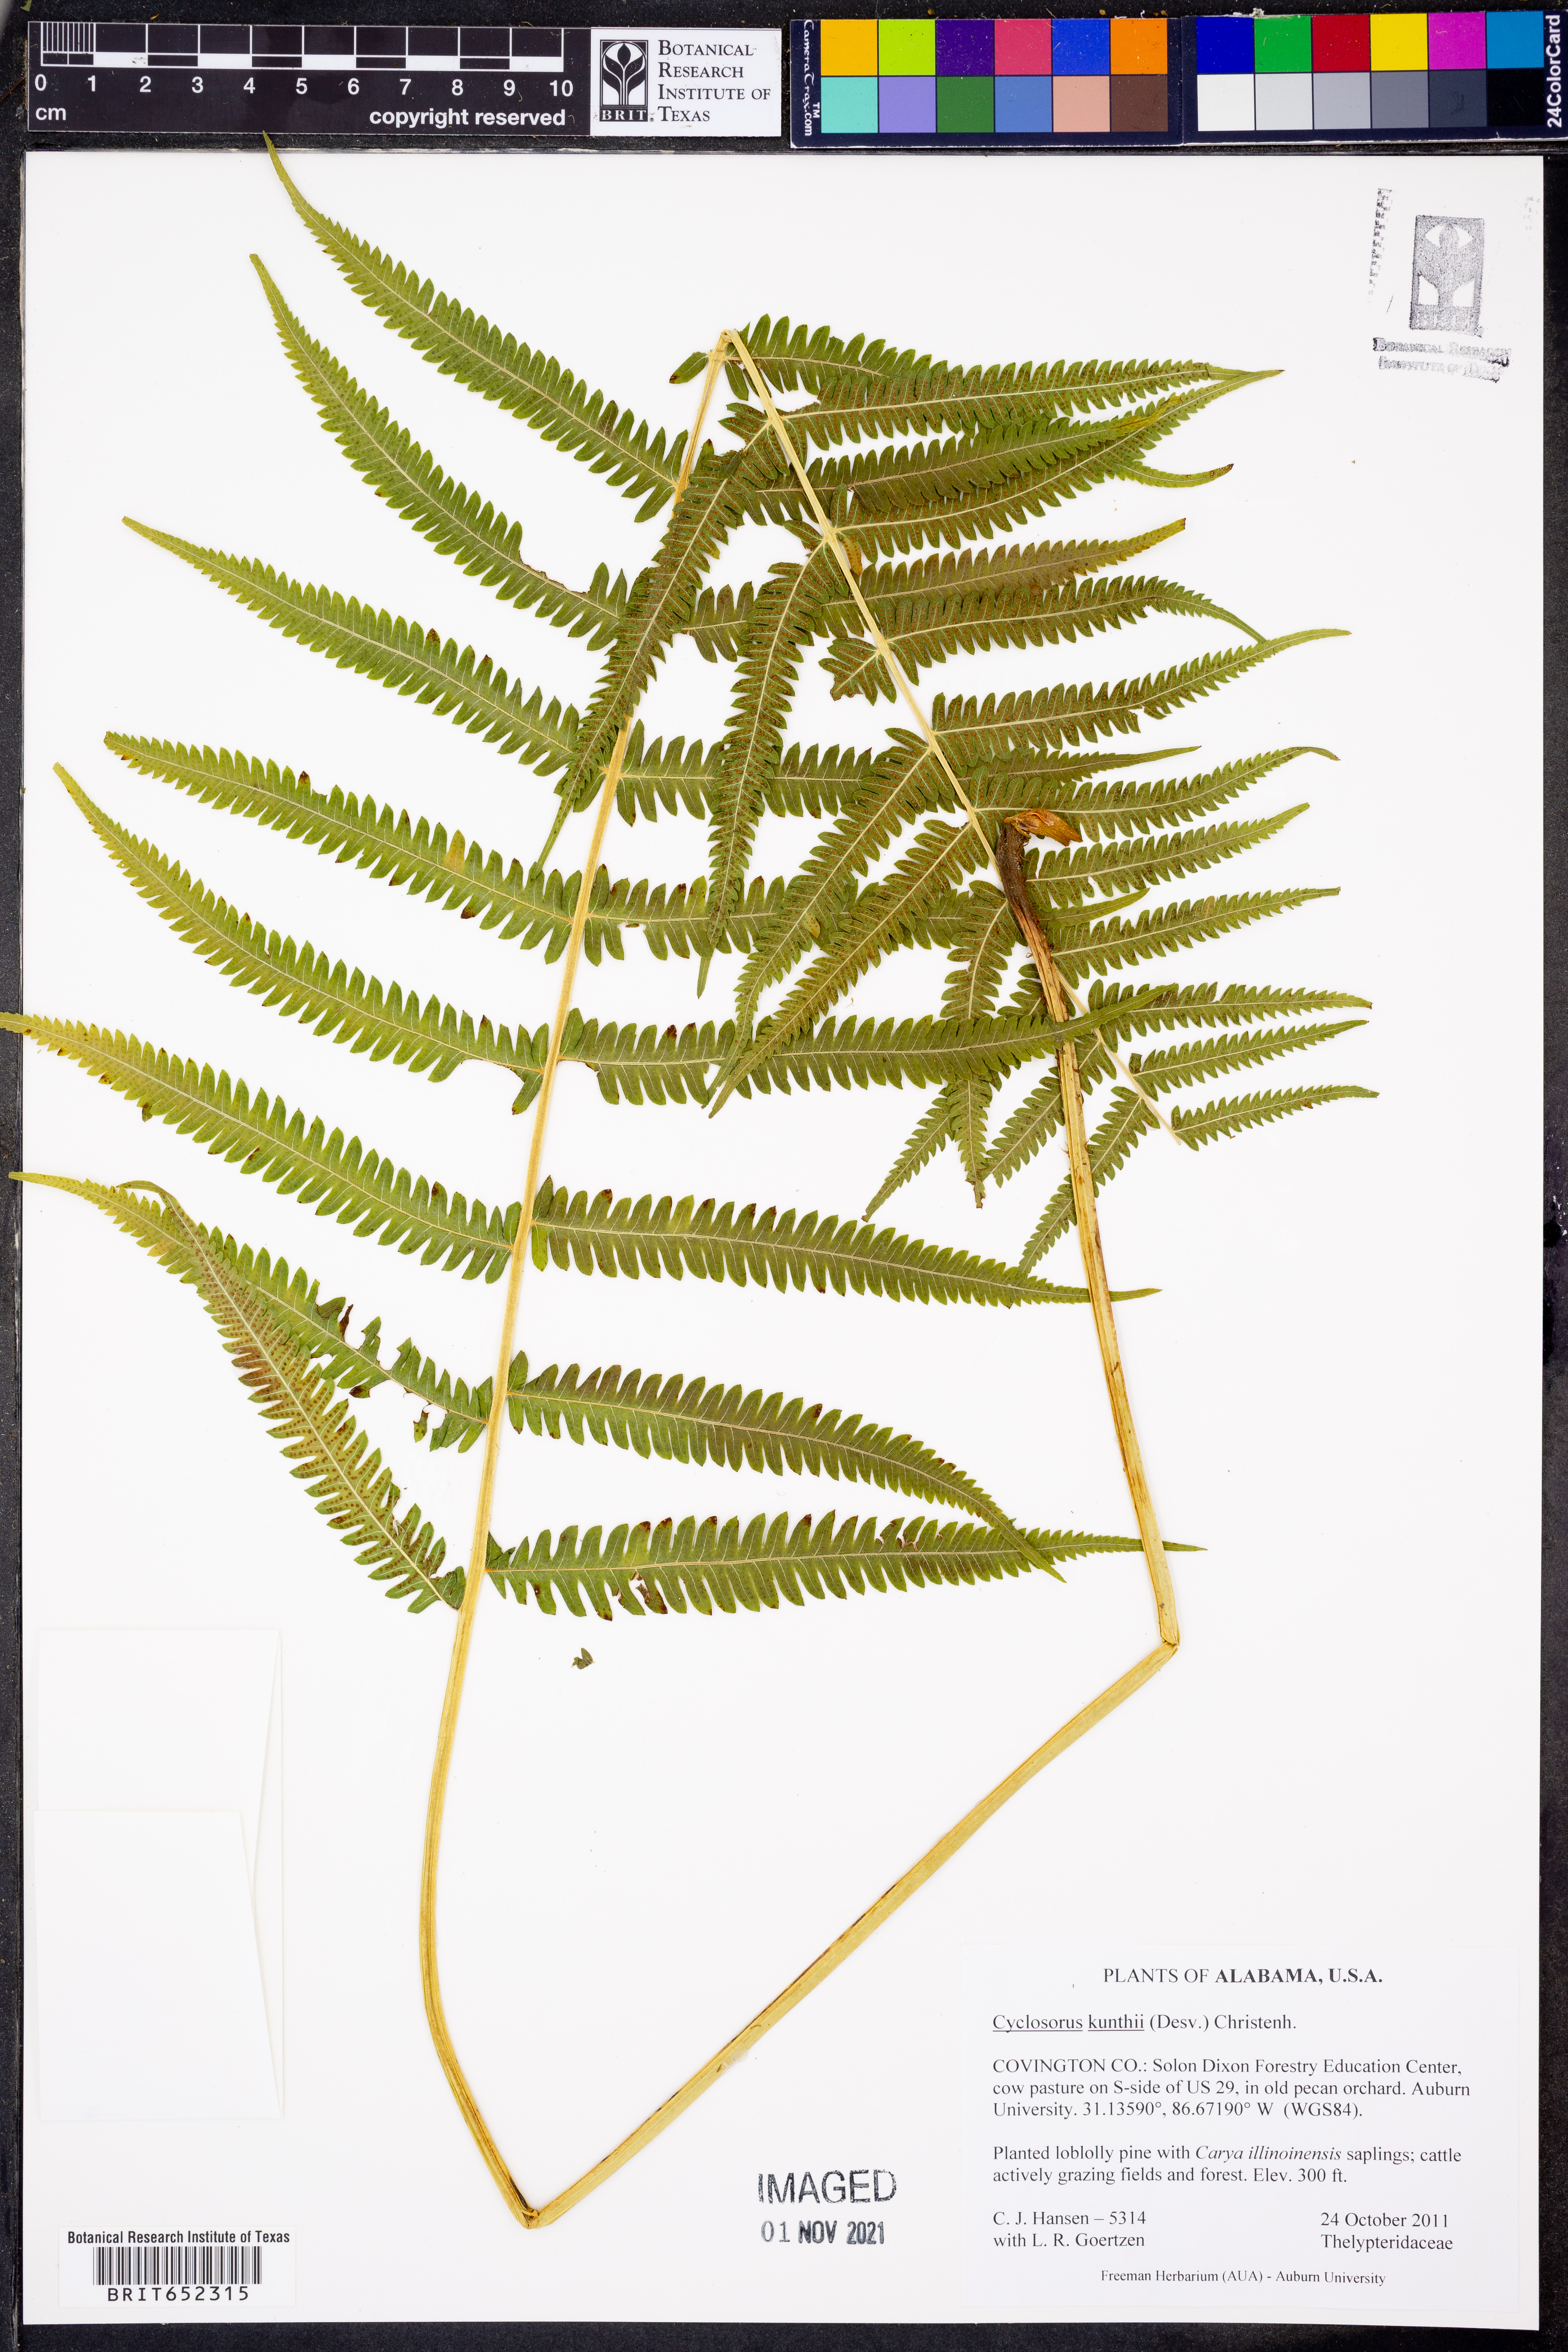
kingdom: Plantae
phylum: Tracheophyta
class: Polypodiopsida
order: Polypodiales
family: Thelypteridaceae
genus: Pelazoneuron
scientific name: Pelazoneuron kunthii
